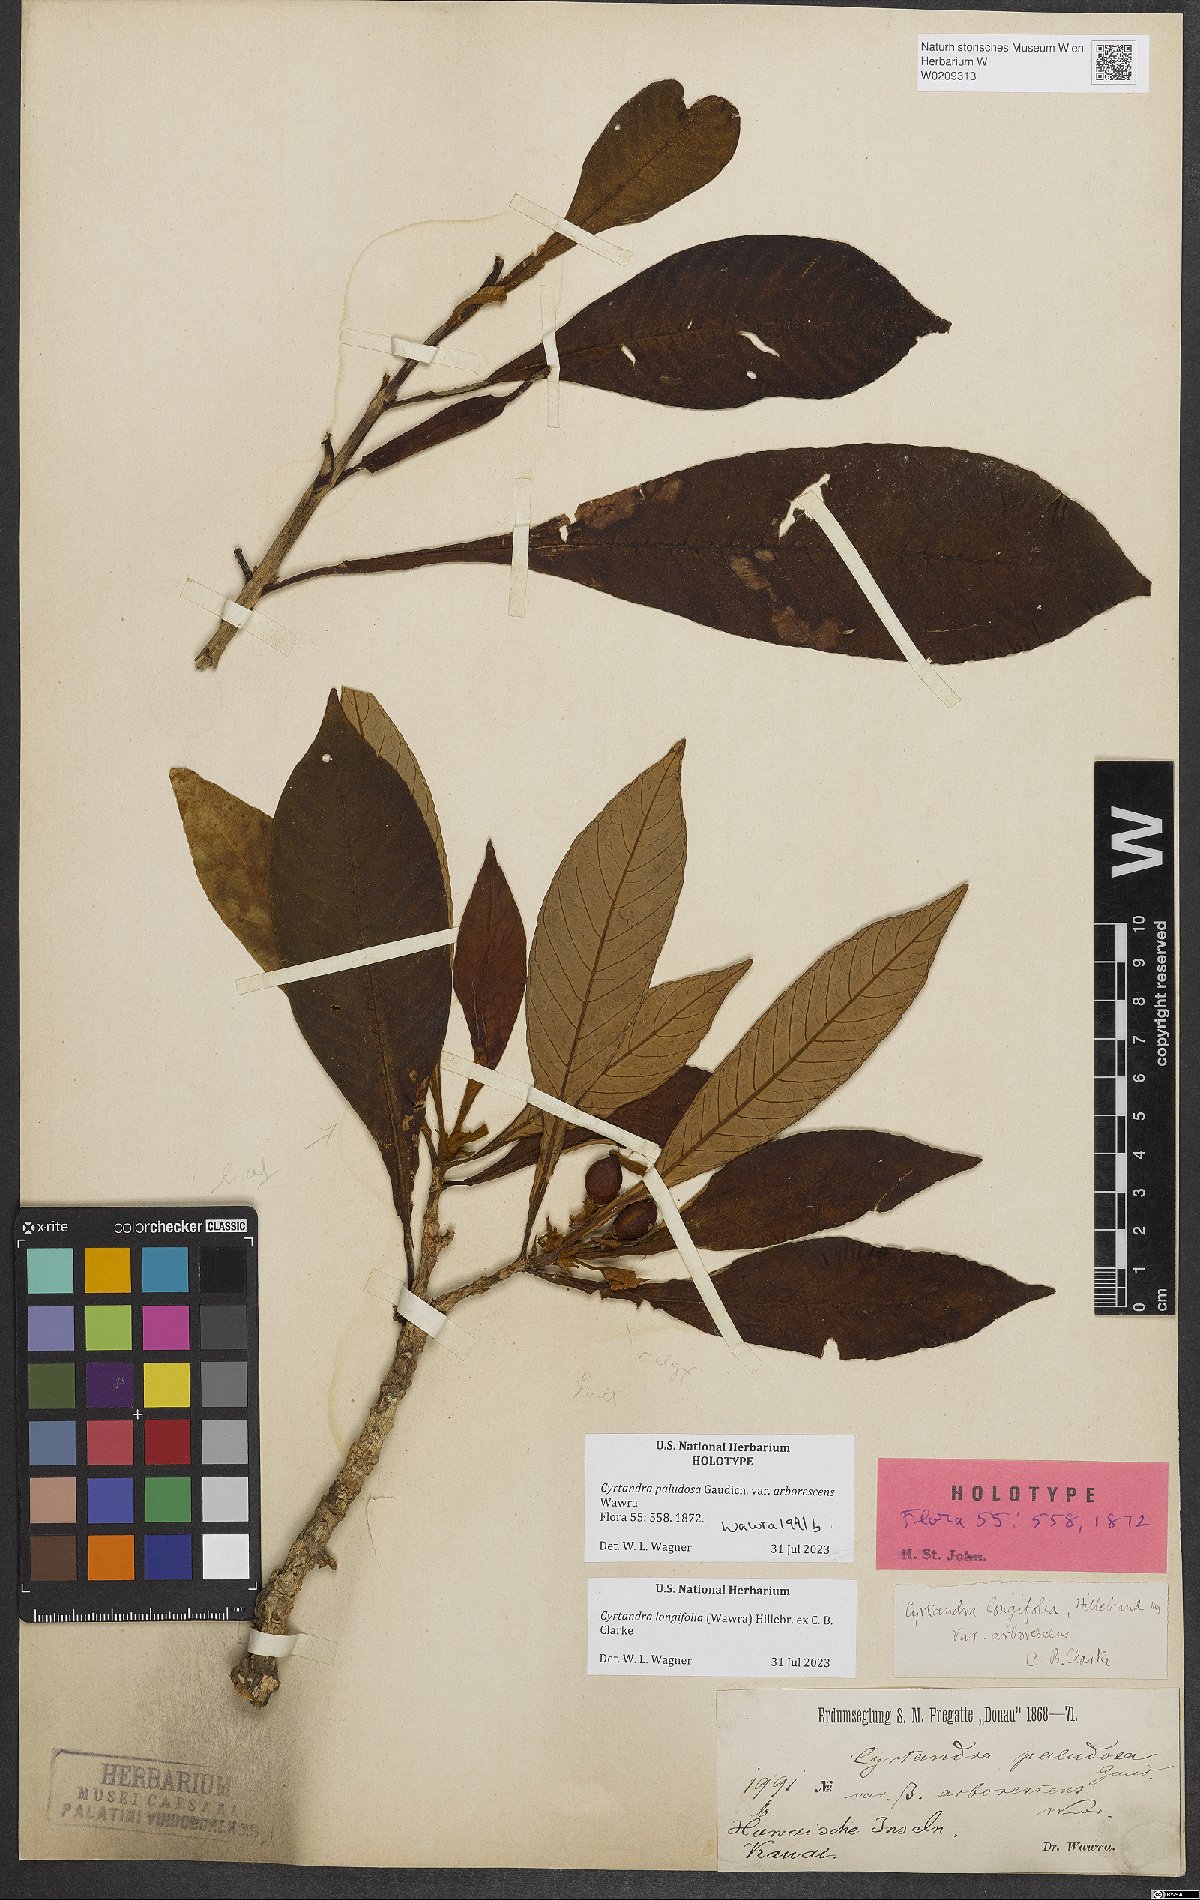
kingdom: Plantae
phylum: Tracheophyta
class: Magnoliopsida
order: Lamiales
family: Gesneriaceae
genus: Cyrtandra
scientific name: Cyrtandra paludosa
